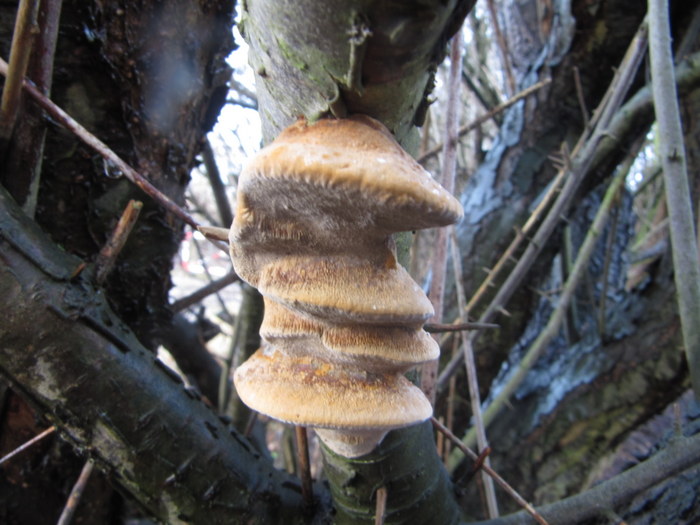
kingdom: Fungi
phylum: Basidiomycota
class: Agaricomycetes
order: Hymenochaetales
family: Hymenochaetaceae
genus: Phellinus
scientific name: Phellinus pomaceus
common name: blomme-ildporesvamp
